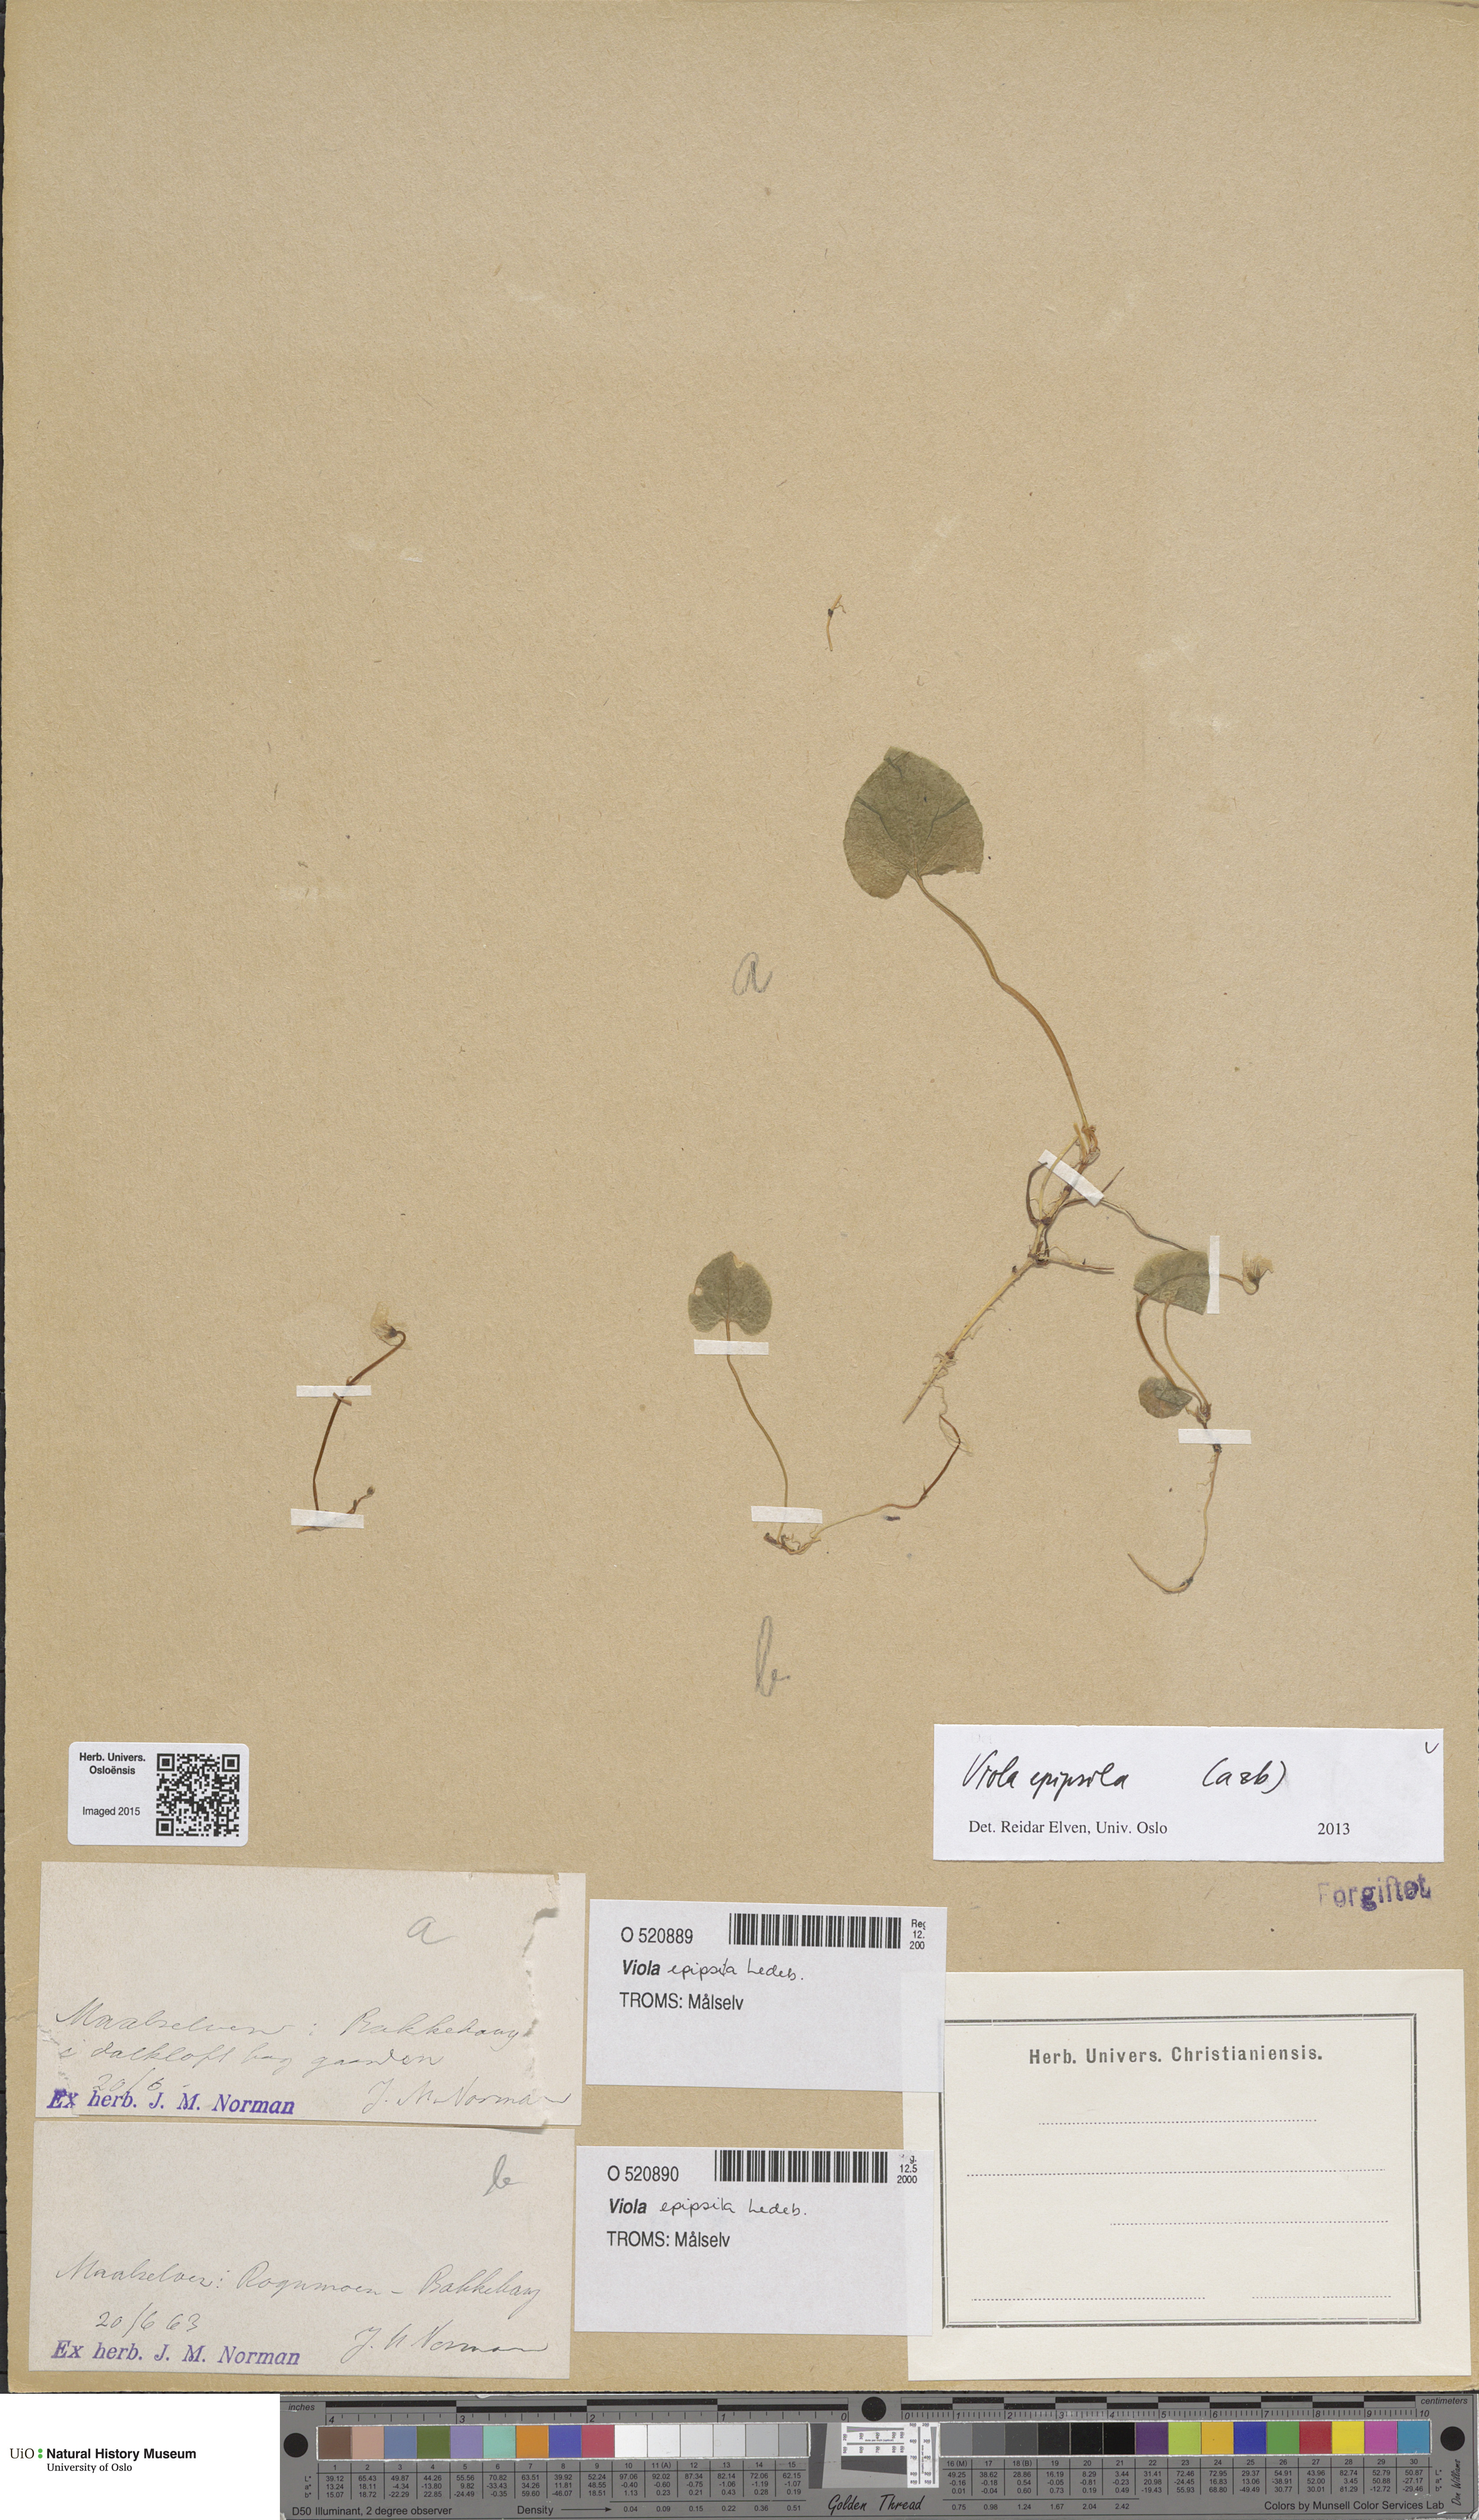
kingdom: Plantae
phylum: Tracheophyta
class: Magnoliopsida
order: Malpighiales
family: Violaceae
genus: Viola
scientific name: Viola epipsila
